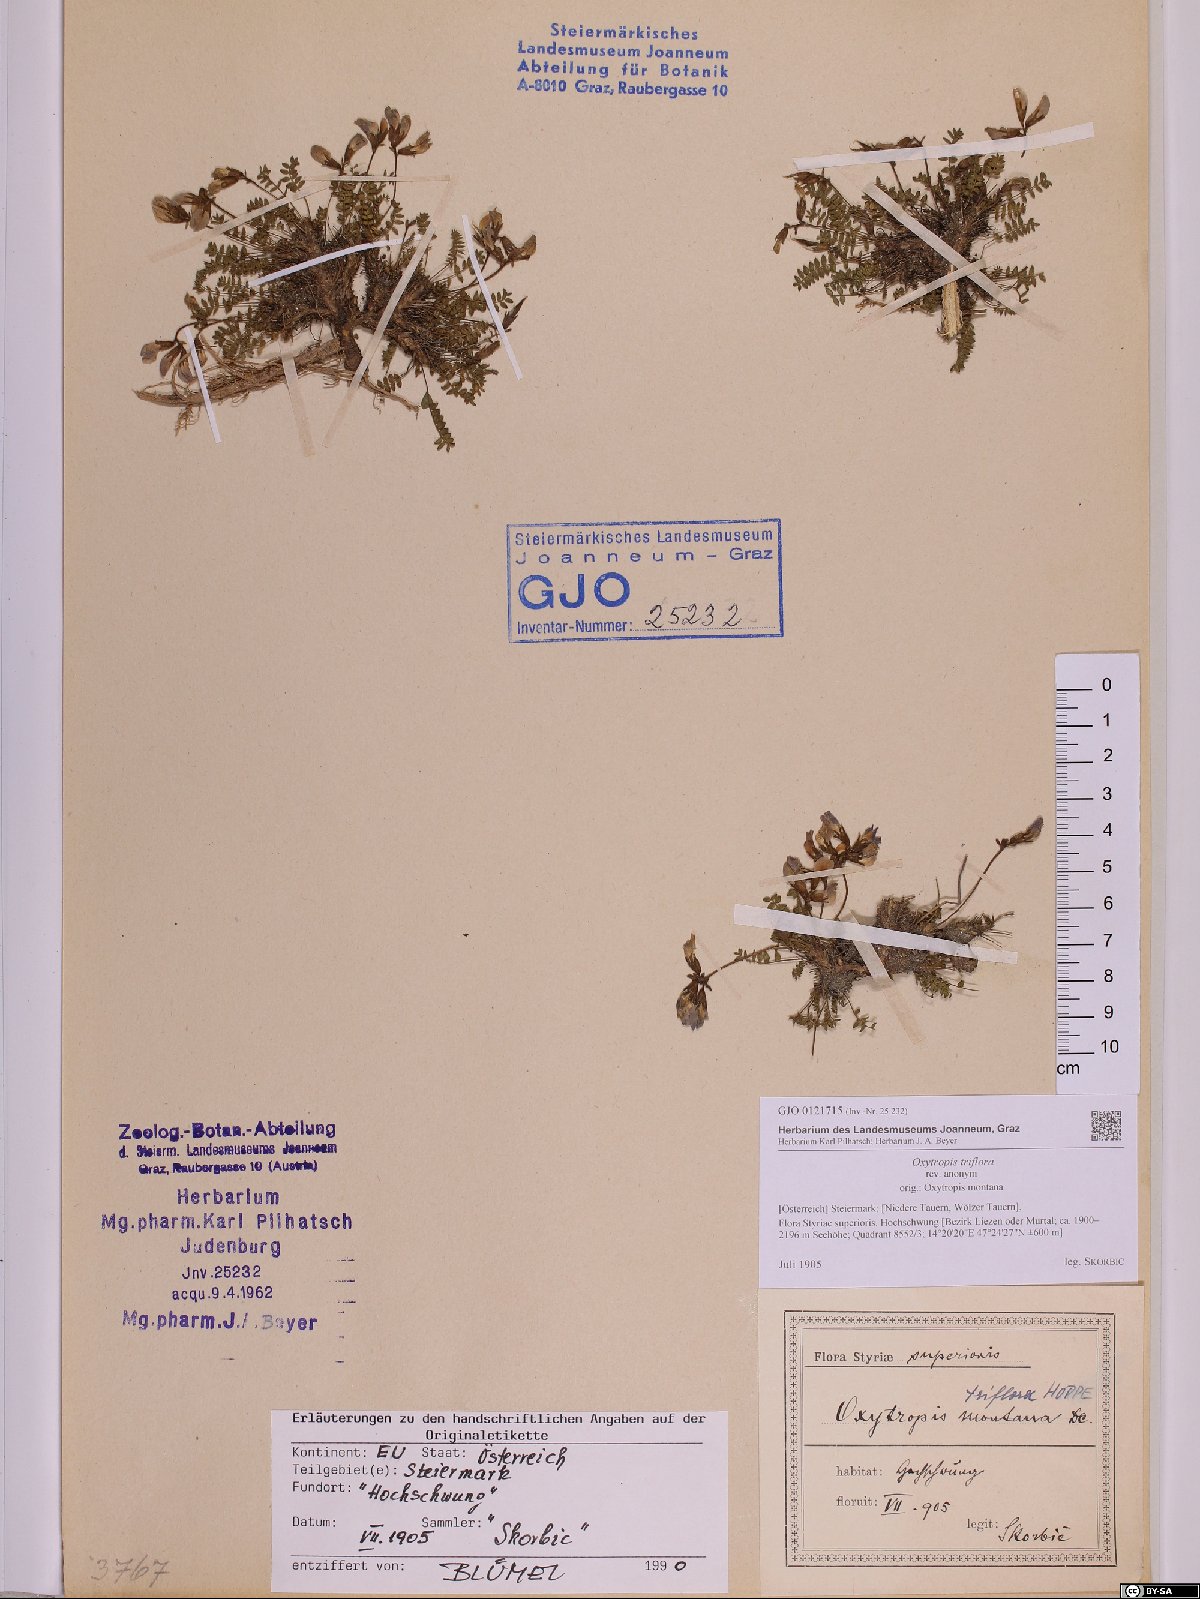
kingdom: Plantae
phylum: Tracheophyta
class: Magnoliopsida
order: Fabales
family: Fabaceae
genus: Oxytropis
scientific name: Oxytropis triflora
